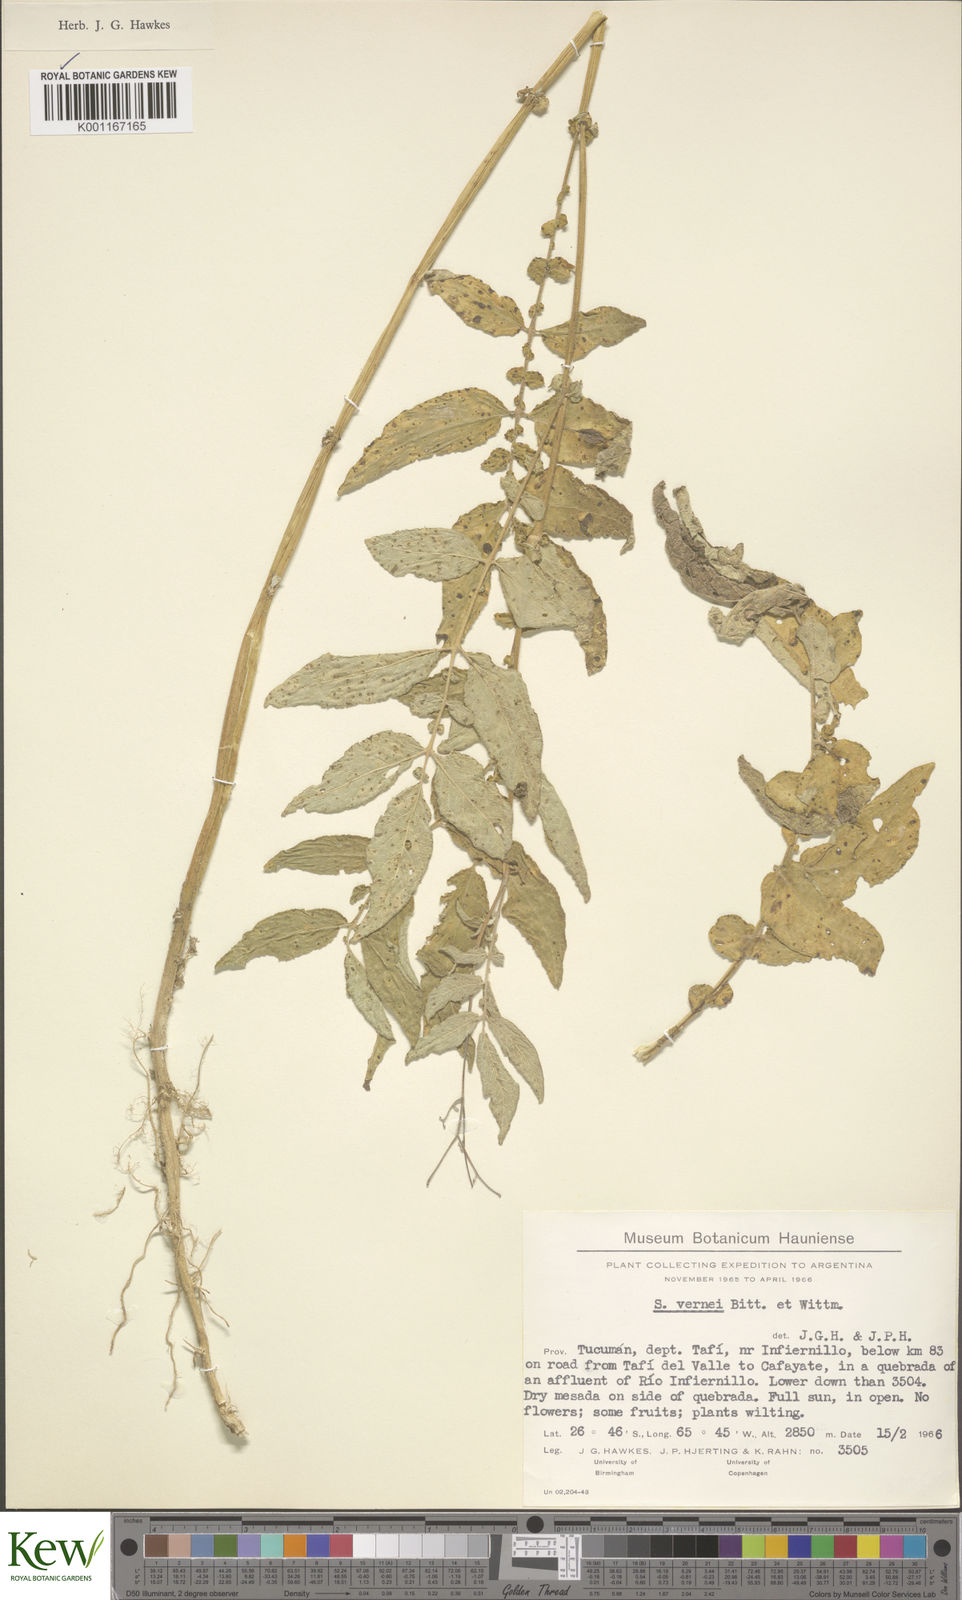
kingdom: Plantae
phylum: Tracheophyta
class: Magnoliopsida
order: Solanales
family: Solanaceae
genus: Solanum
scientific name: Solanum vernei
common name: Purple potato
